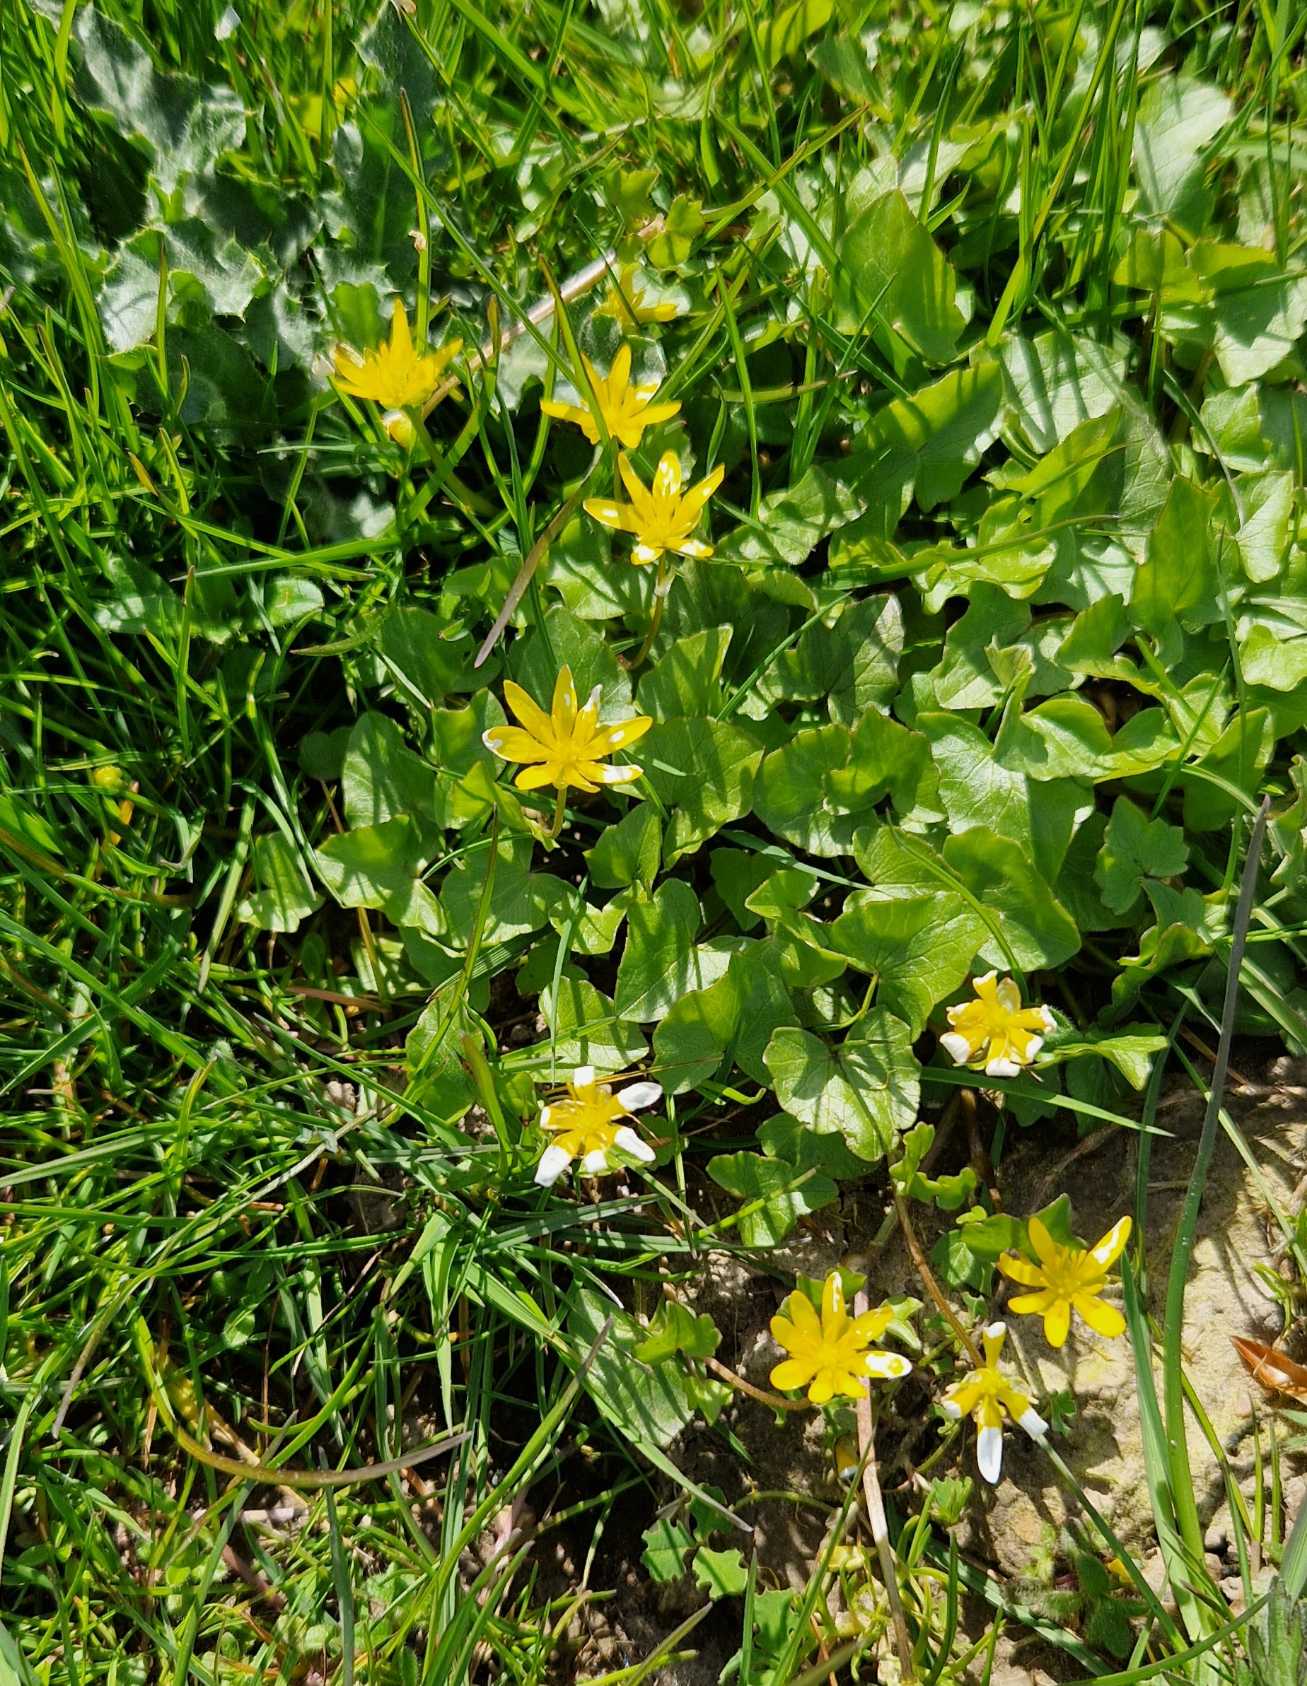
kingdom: Plantae
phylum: Tracheophyta
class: Magnoliopsida
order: Ranunculales
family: Ranunculaceae
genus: Ficaria
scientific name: Ficaria verna
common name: Vorterod
